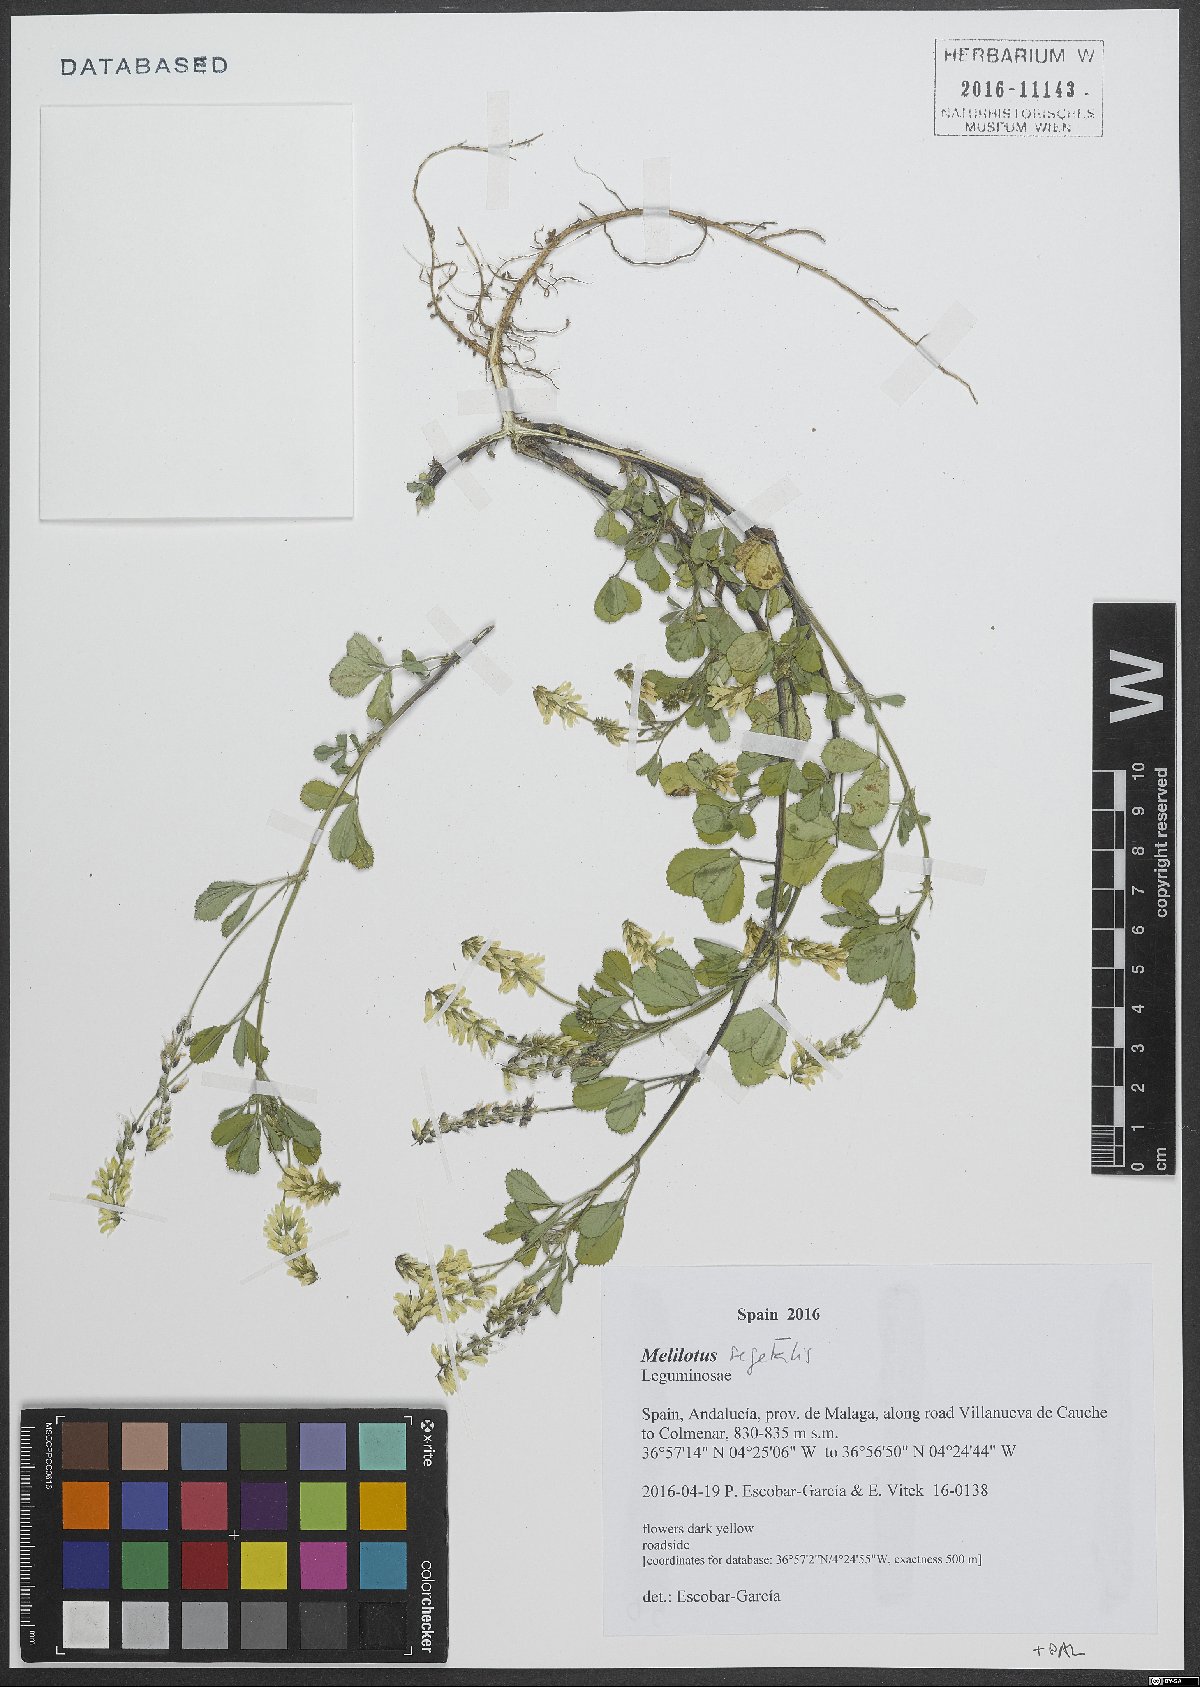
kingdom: Plantae
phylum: Tracheophyta
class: Magnoliopsida
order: Fabales
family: Fabaceae
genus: Melilotus
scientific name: Melilotus segetalis
